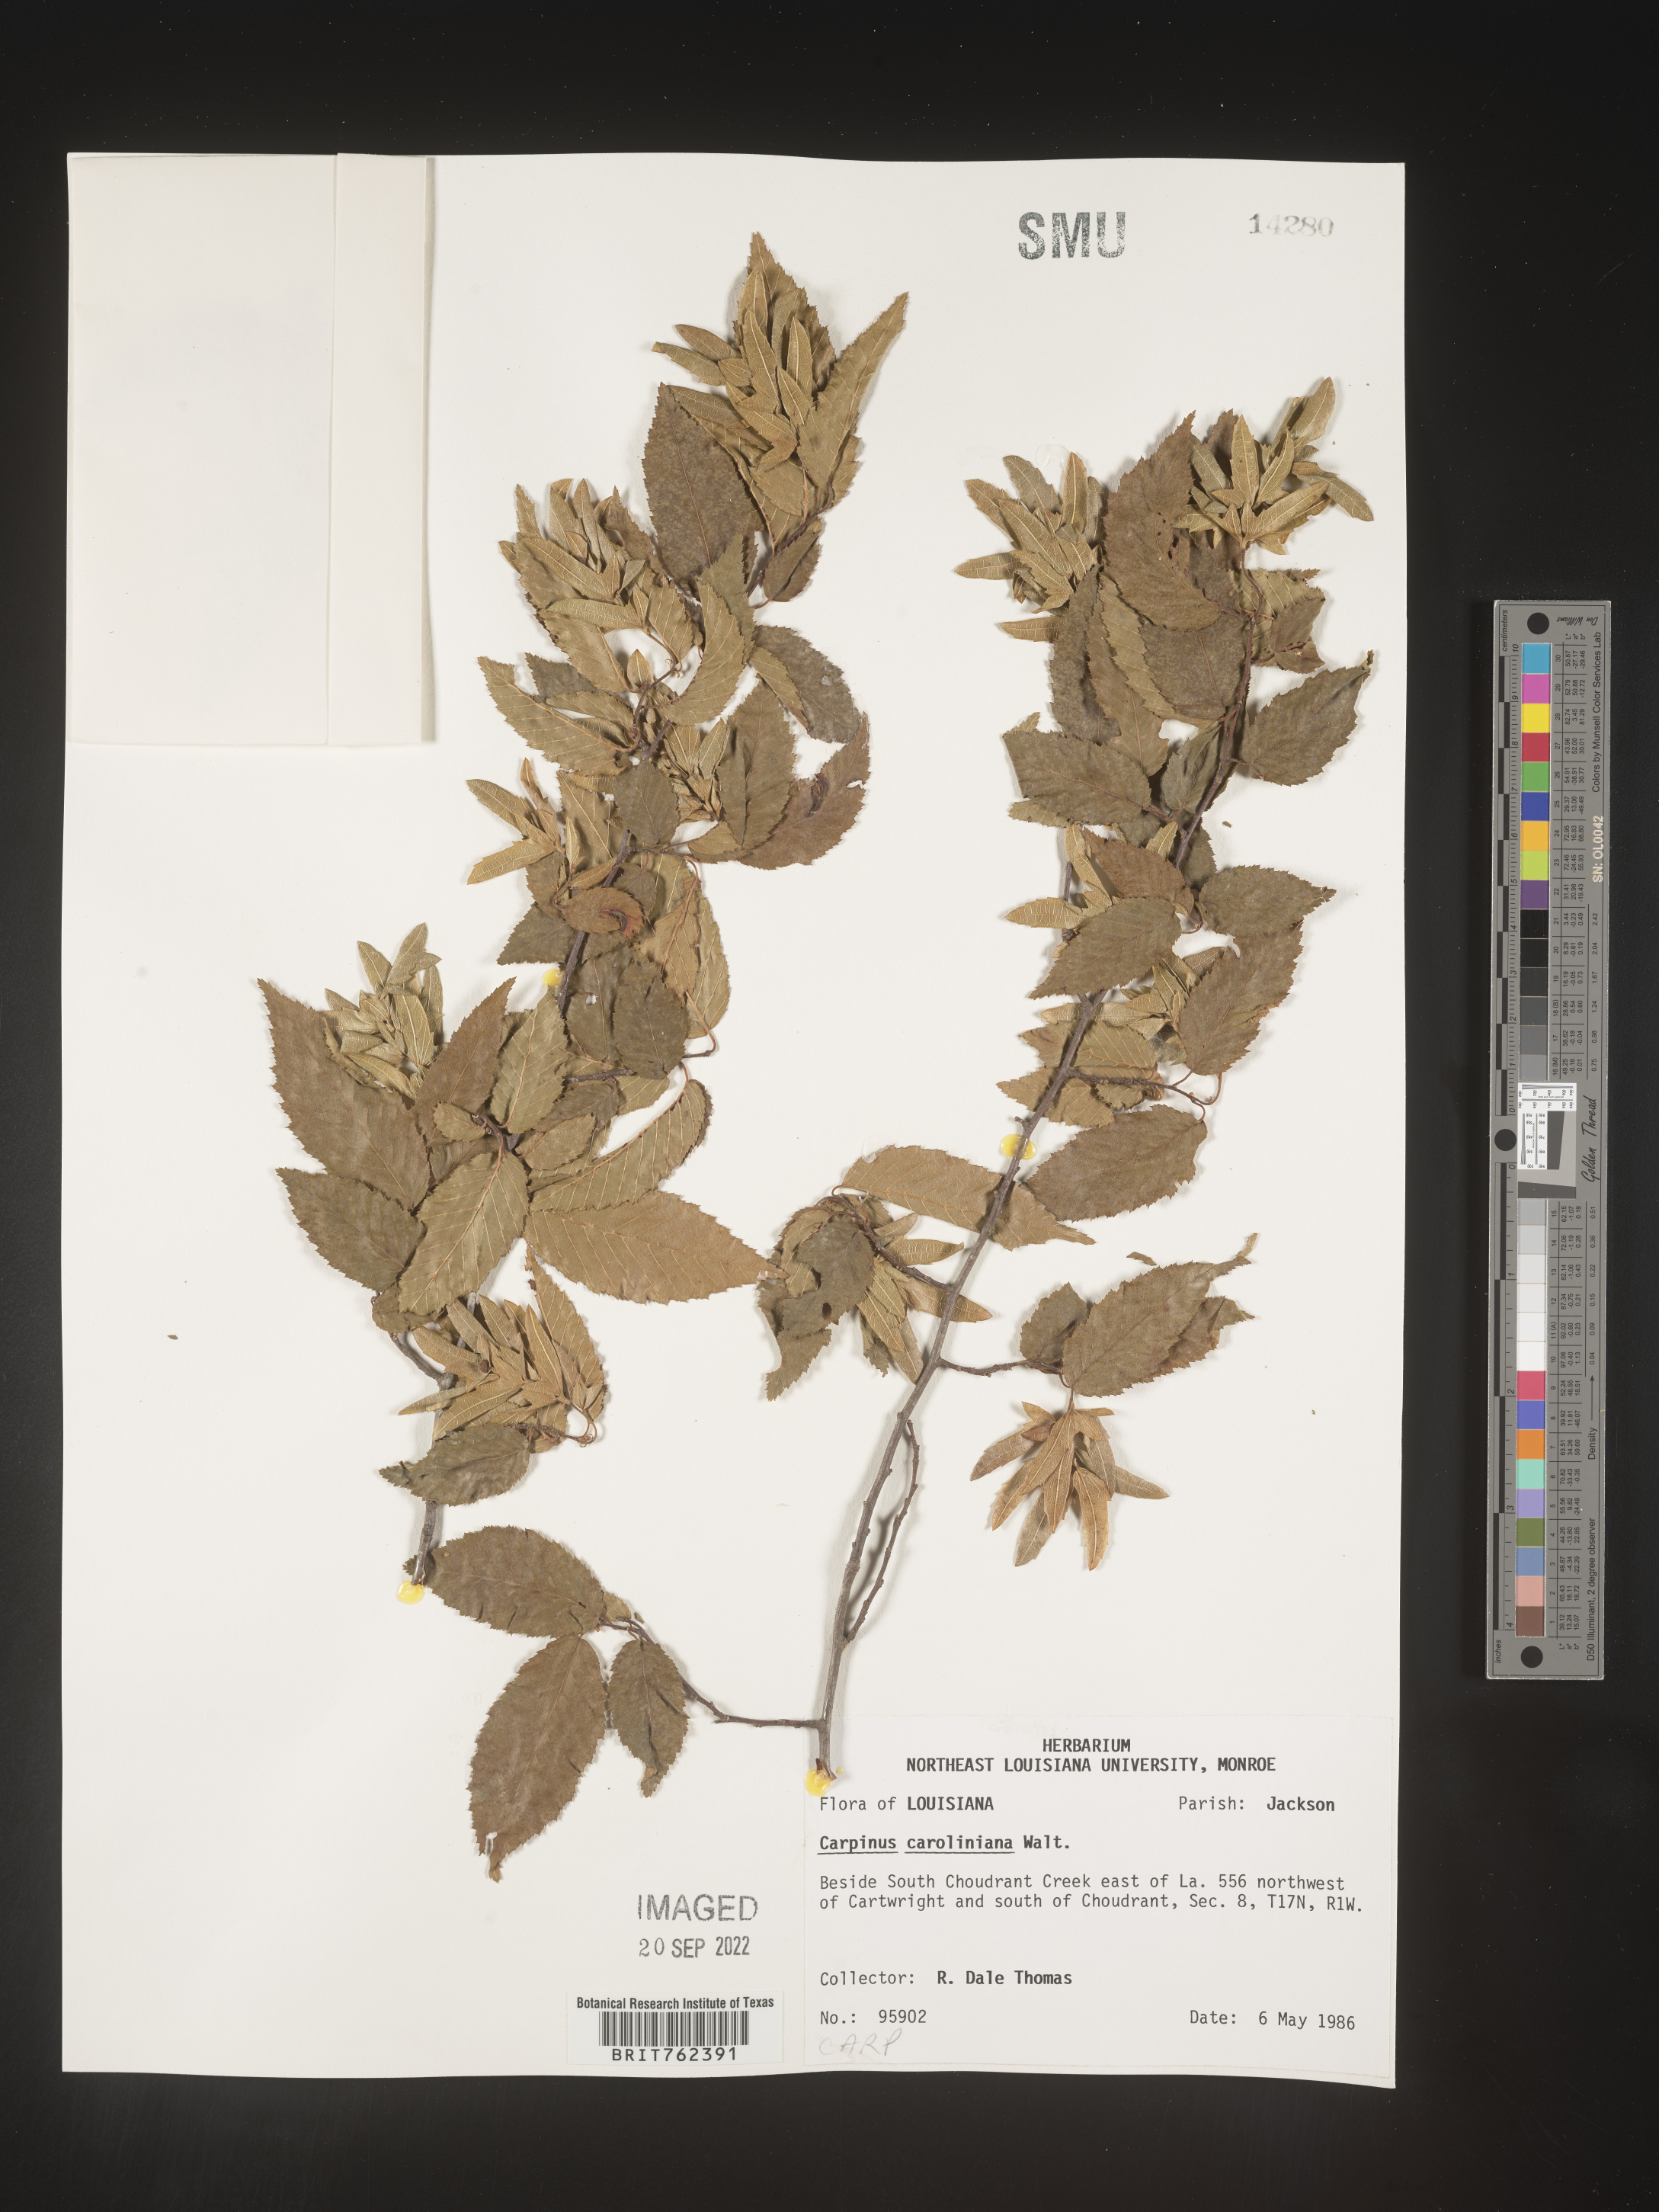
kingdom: Plantae
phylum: Tracheophyta
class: Magnoliopsida
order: Fagales
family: Betulaceae
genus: Carpinus
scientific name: Carpinus caroliniana
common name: American hornbeam
